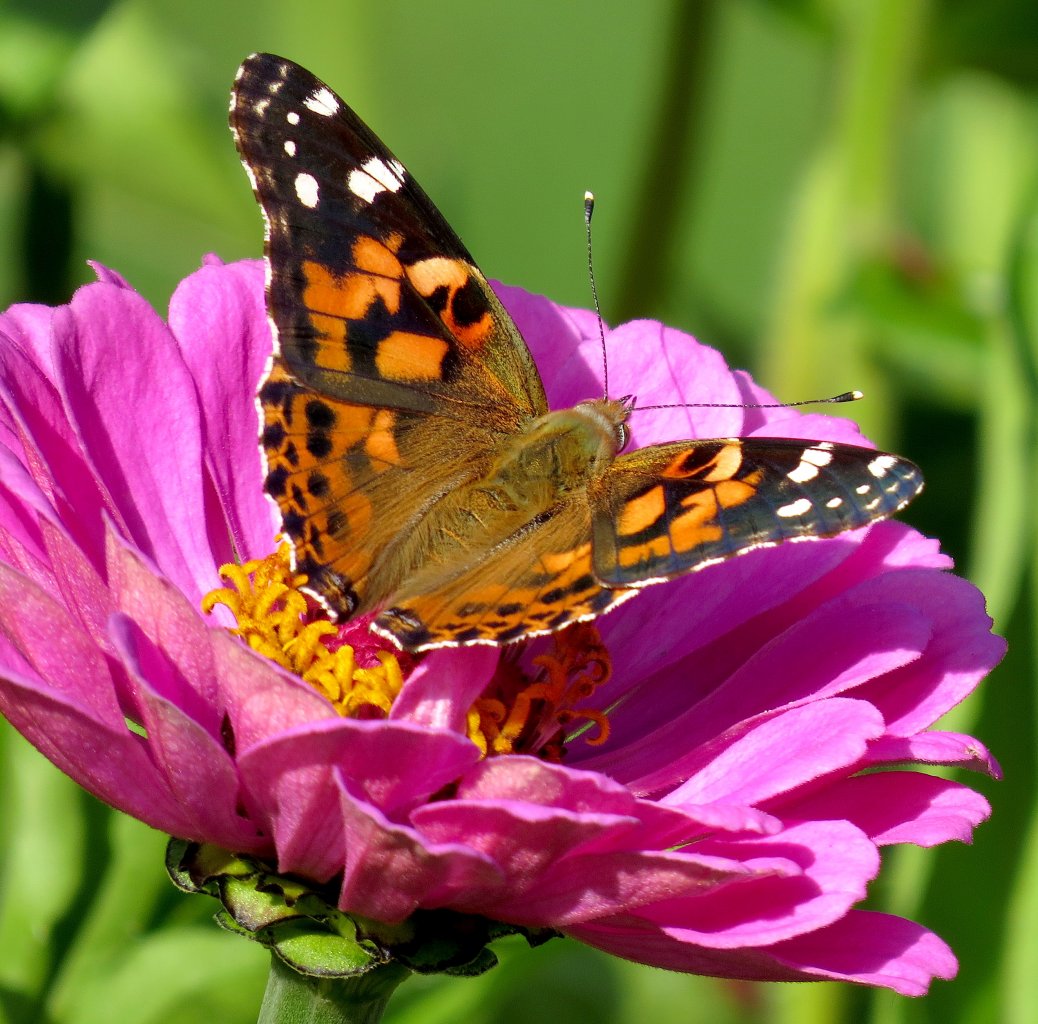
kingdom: Animalia
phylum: Arthropoda
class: Insecta
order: Lepidoptera
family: Nymphalidae
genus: Vanessa
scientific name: Vanessa cardui
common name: Painted Lady
